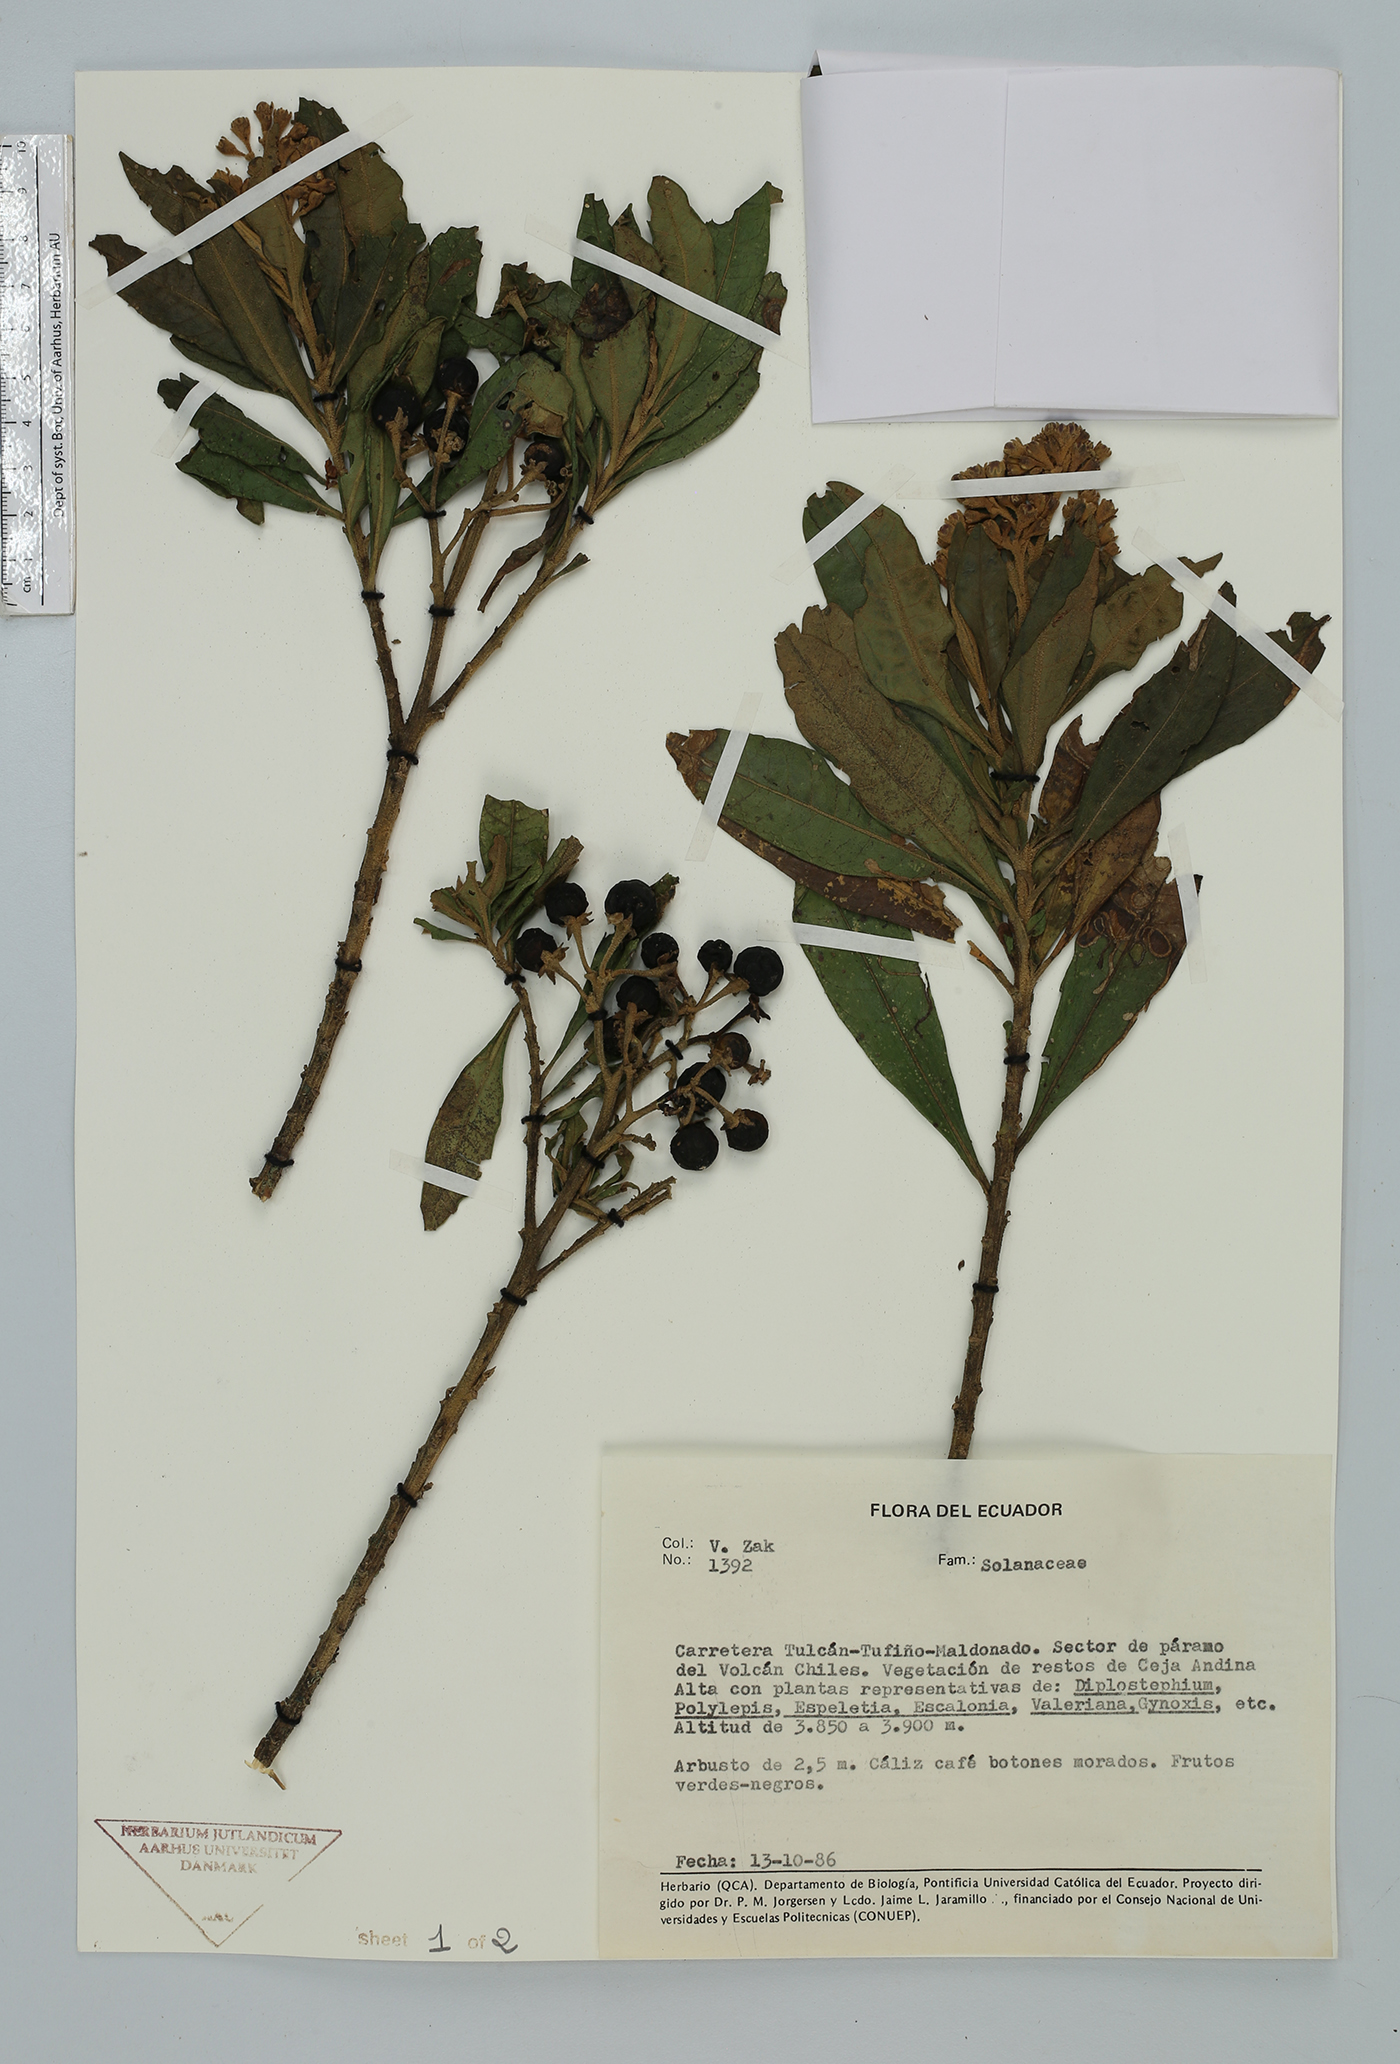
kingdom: Plantae
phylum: Tracheophyta
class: Magnoliopsida
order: Solanales
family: Solanaceae
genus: Solanum
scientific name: Solanum
